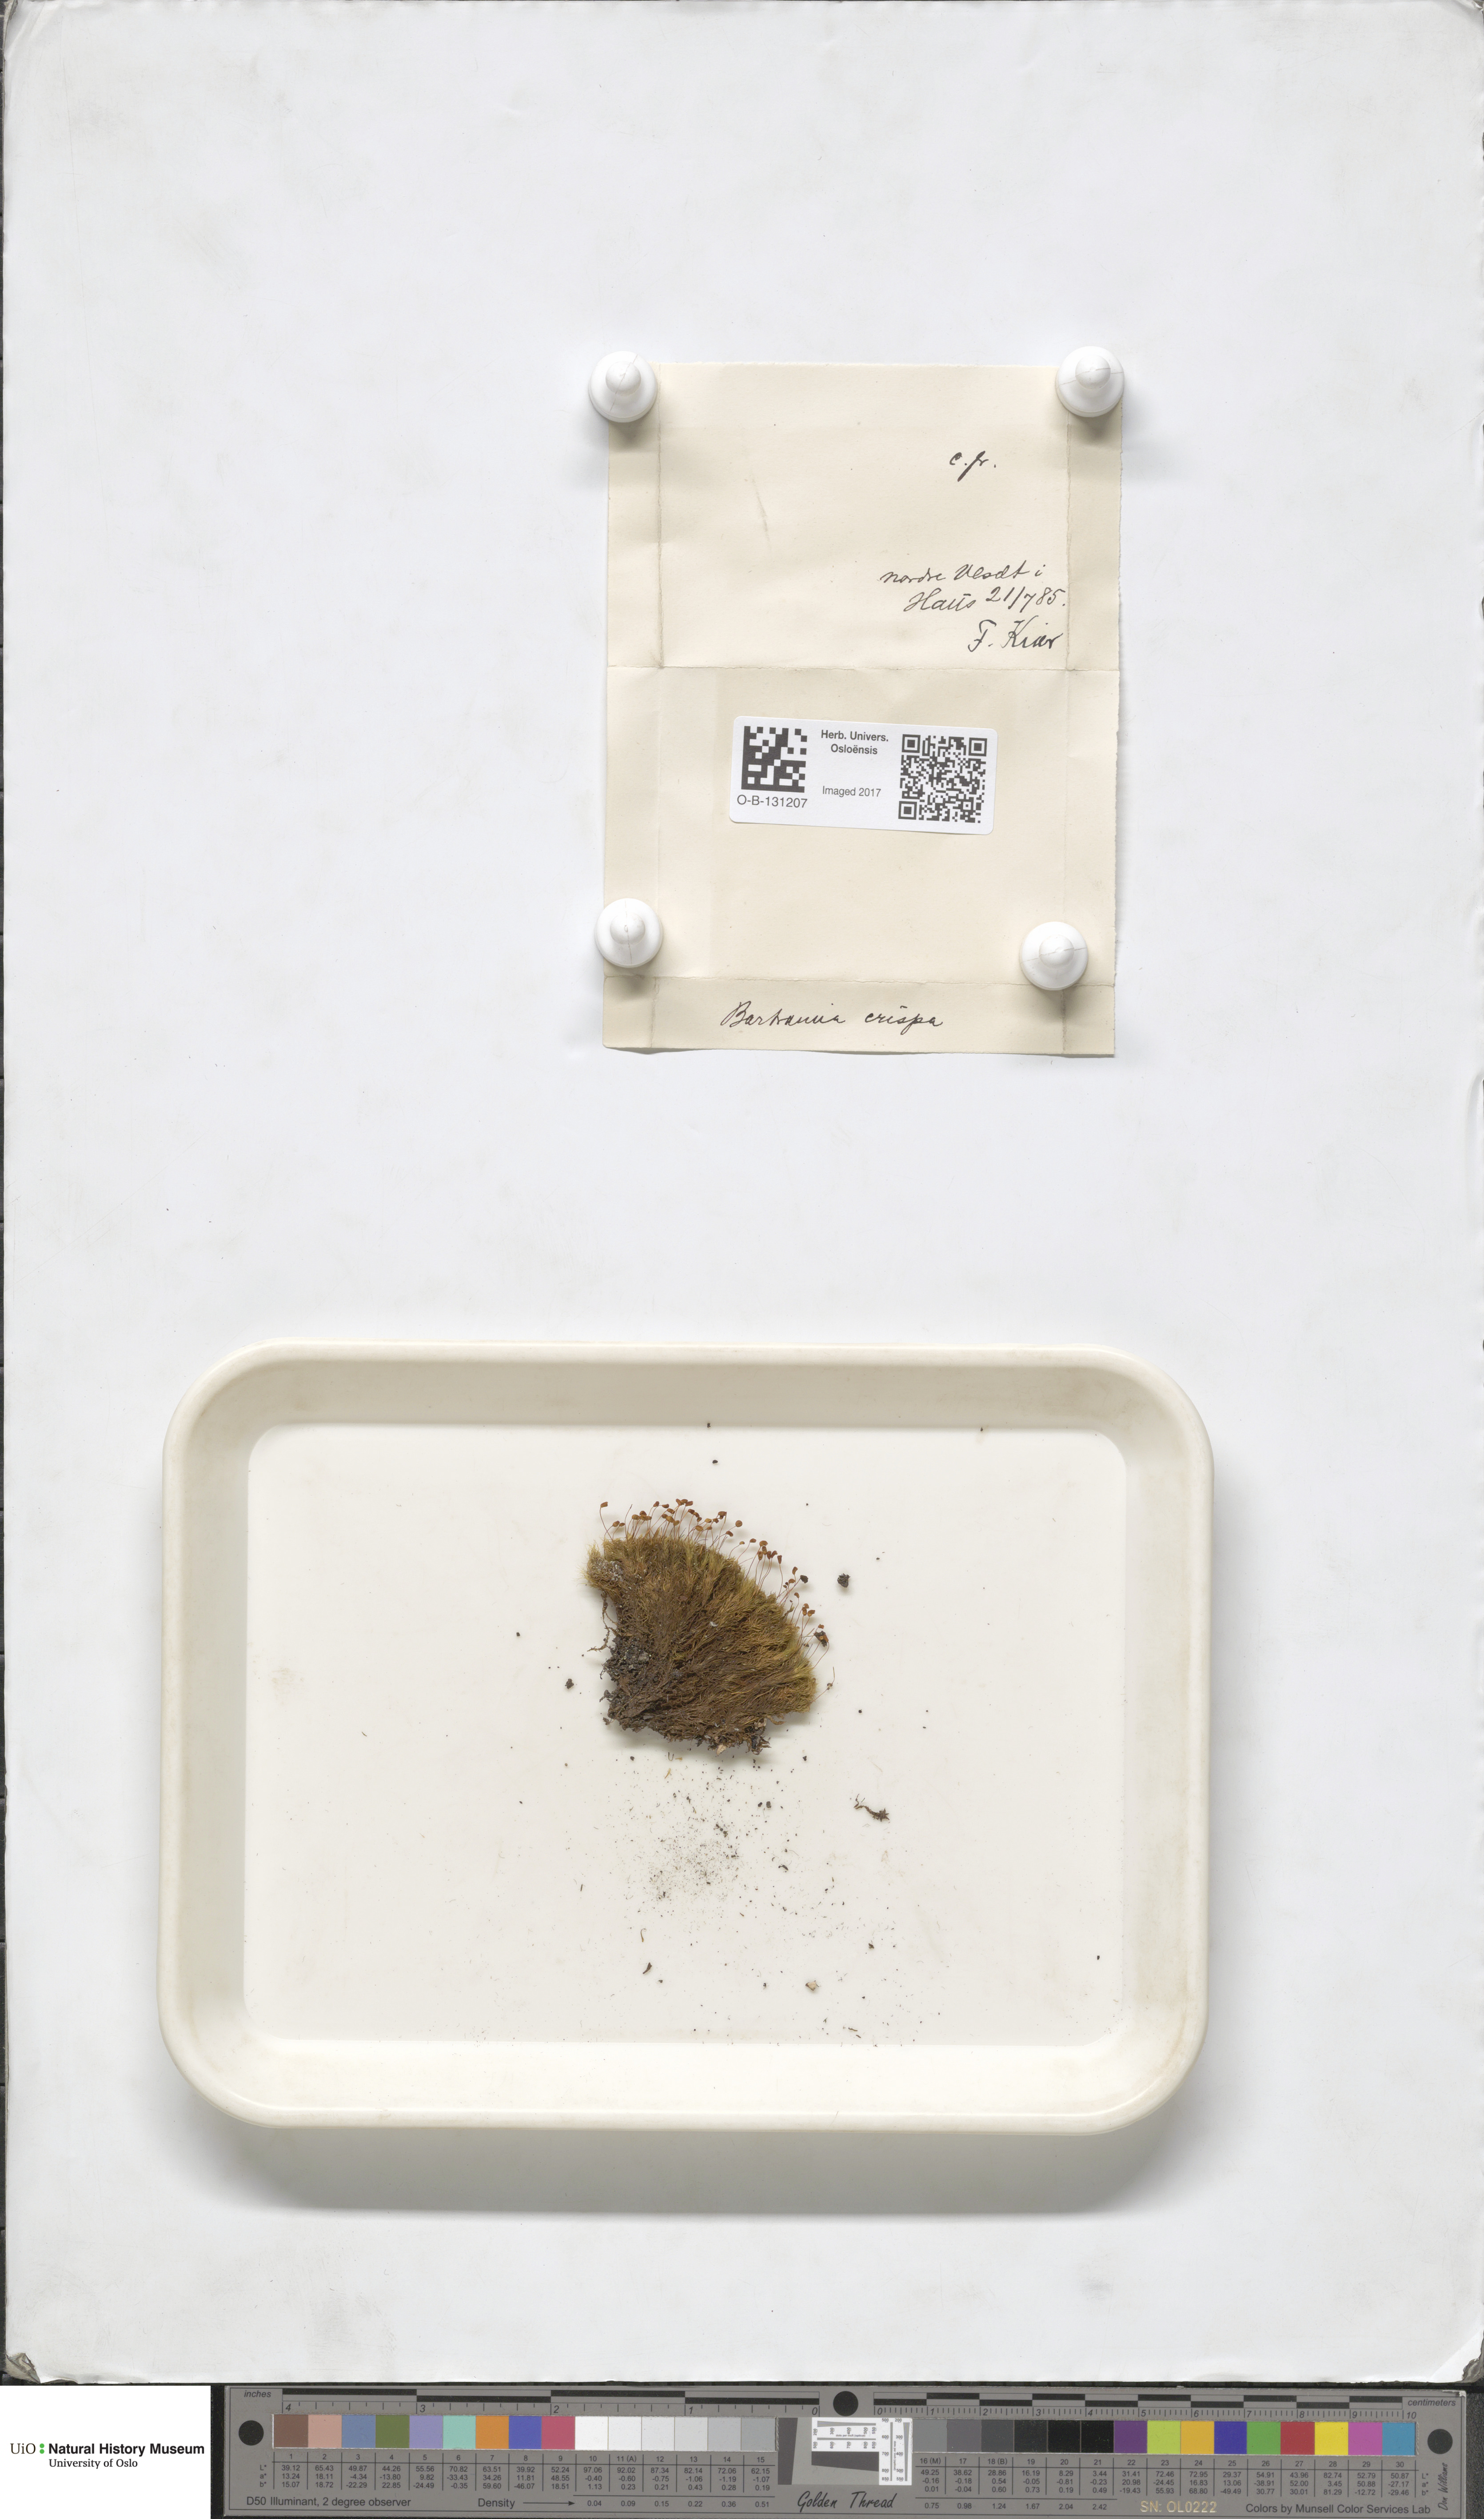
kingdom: Plantae
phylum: Bryophyta
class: Bryopsida
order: Bartramiales
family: Bartramiaceae
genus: Bartramia
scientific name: Bartramia pomiformis
